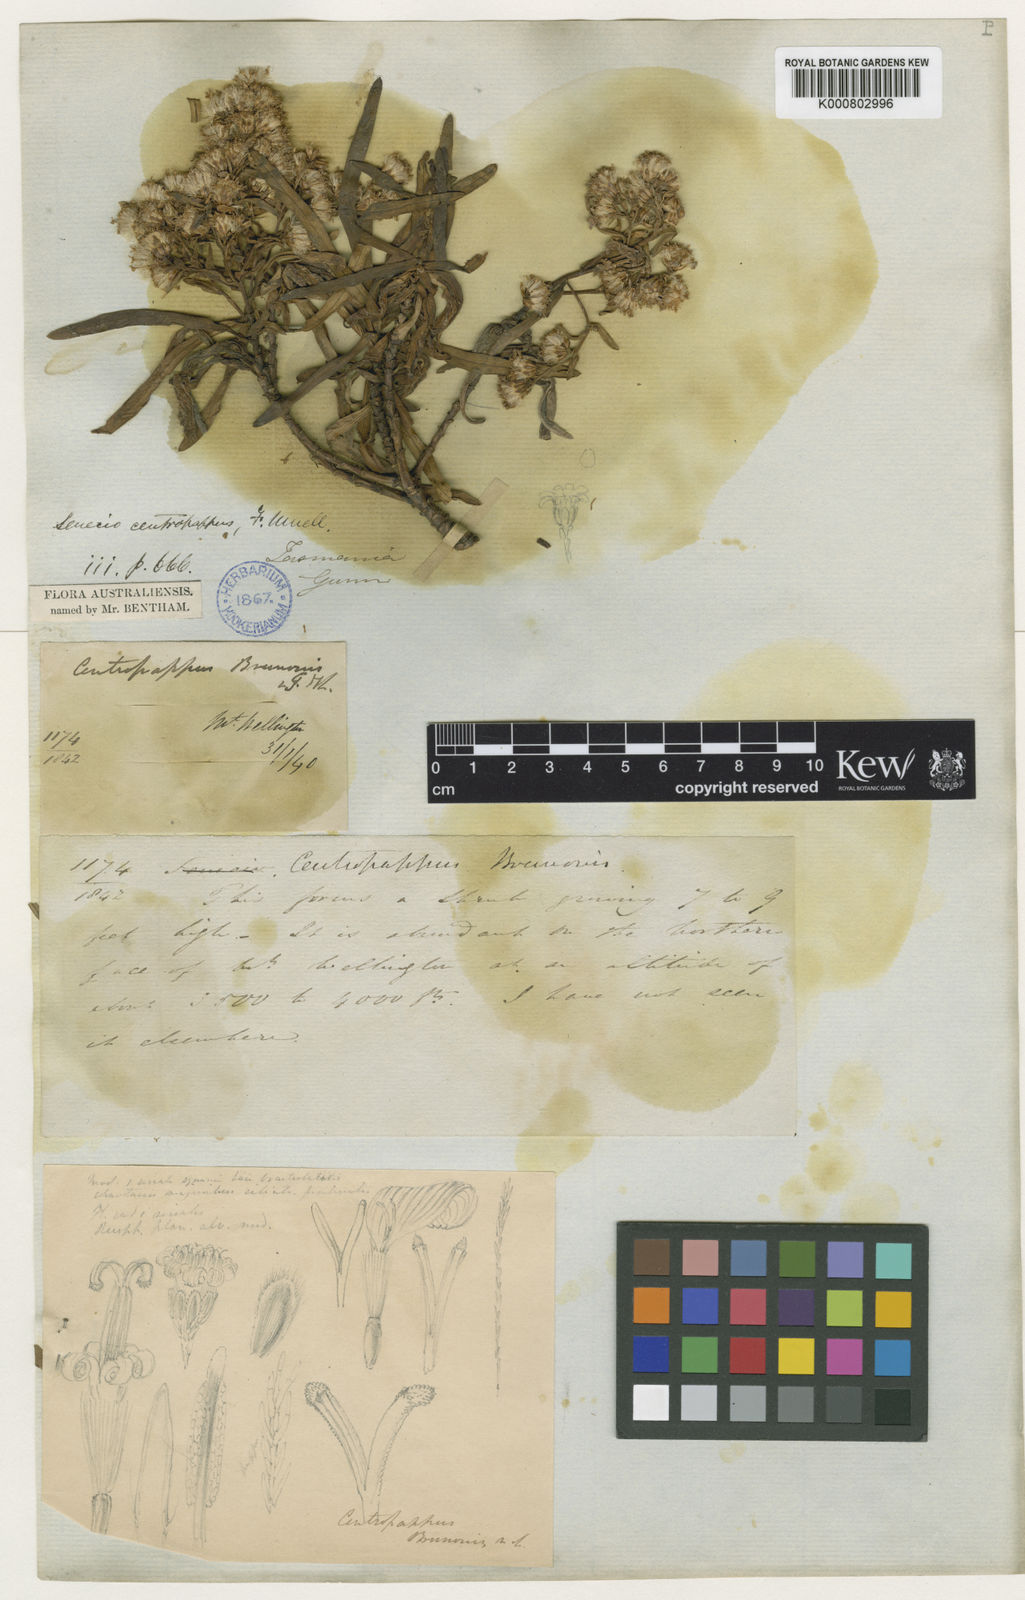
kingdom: Plantae
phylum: Tracheophyta
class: Magnoliopsida
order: Asterales
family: Asteraceae
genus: Centropappus
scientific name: Centropappus brunonis
